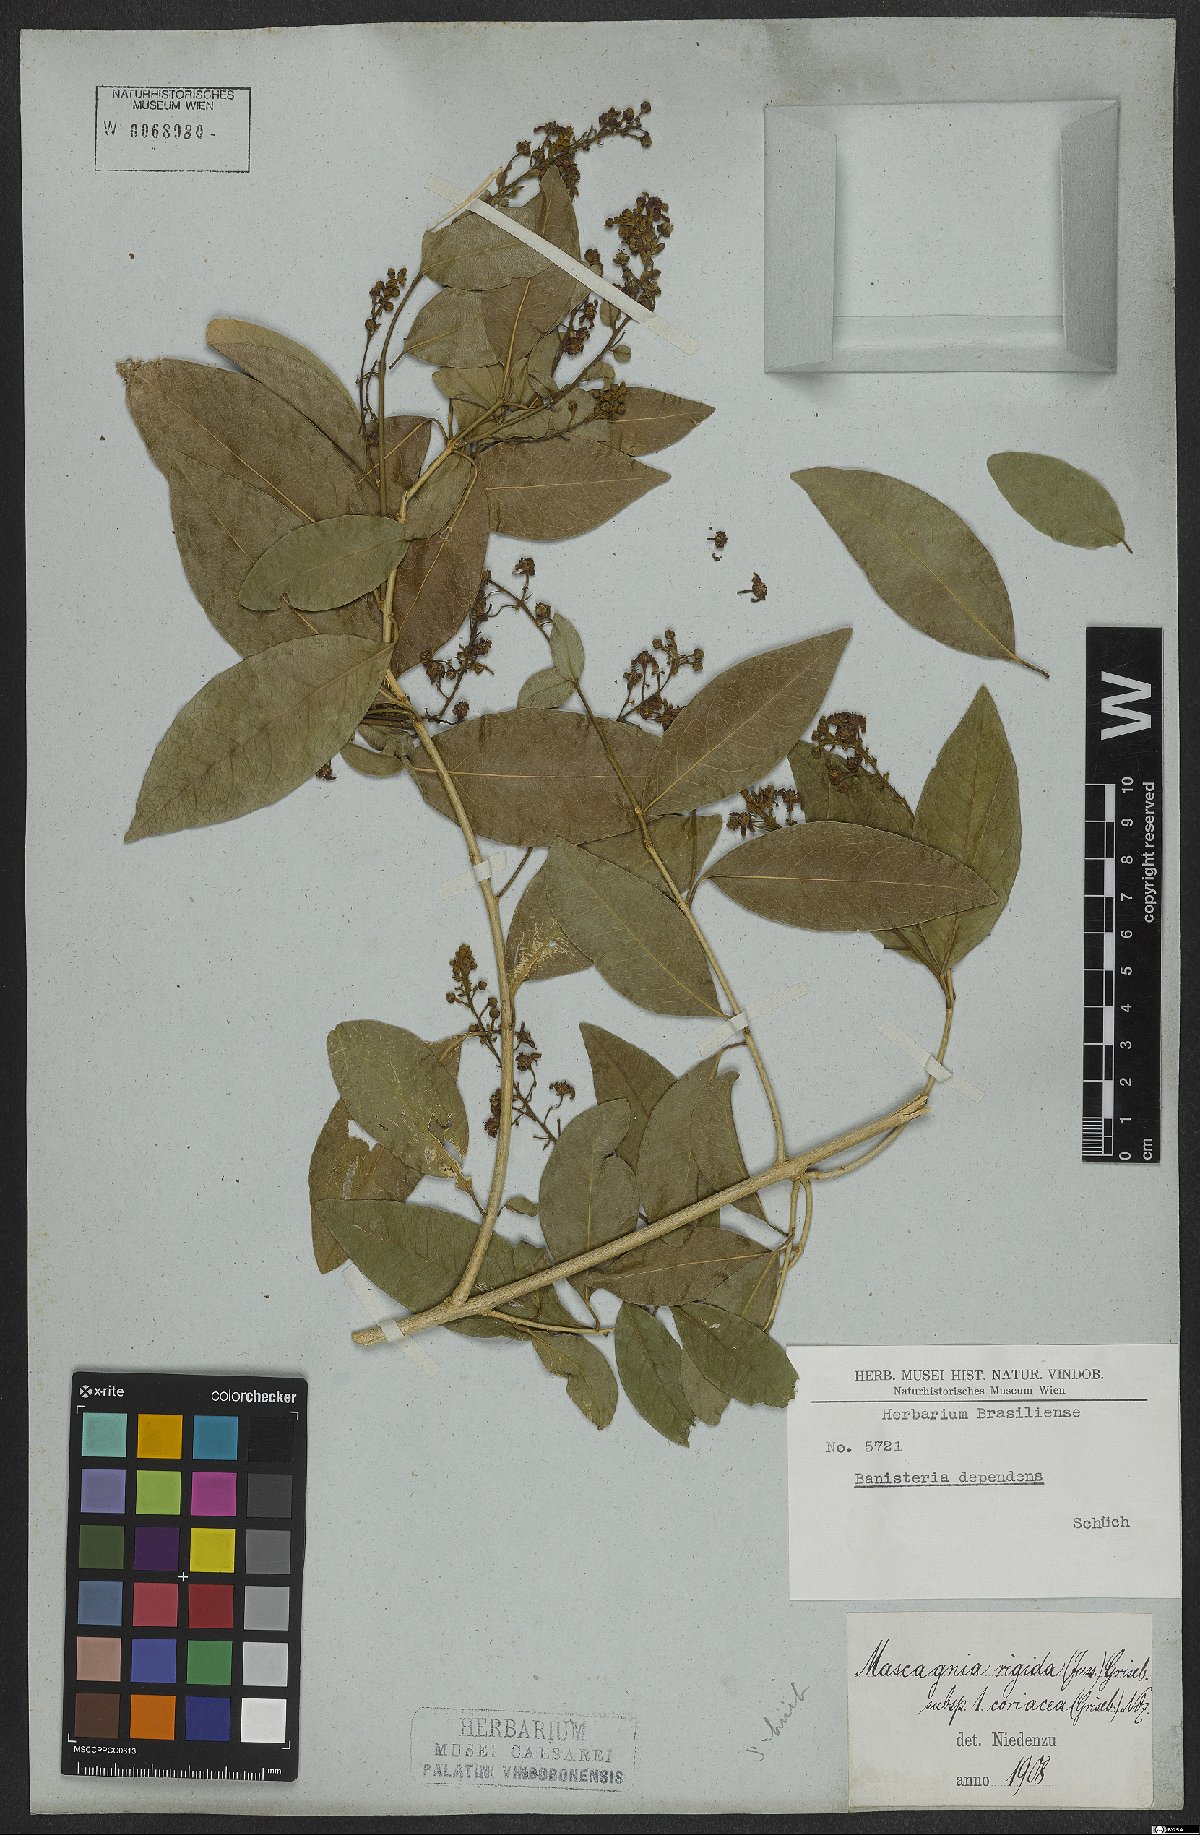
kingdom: Plantae
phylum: Tracheophyta
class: Magnoliopsida
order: Malpighiales
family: Malpighiaceae
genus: Amorimia
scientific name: Amorimia coriacea
